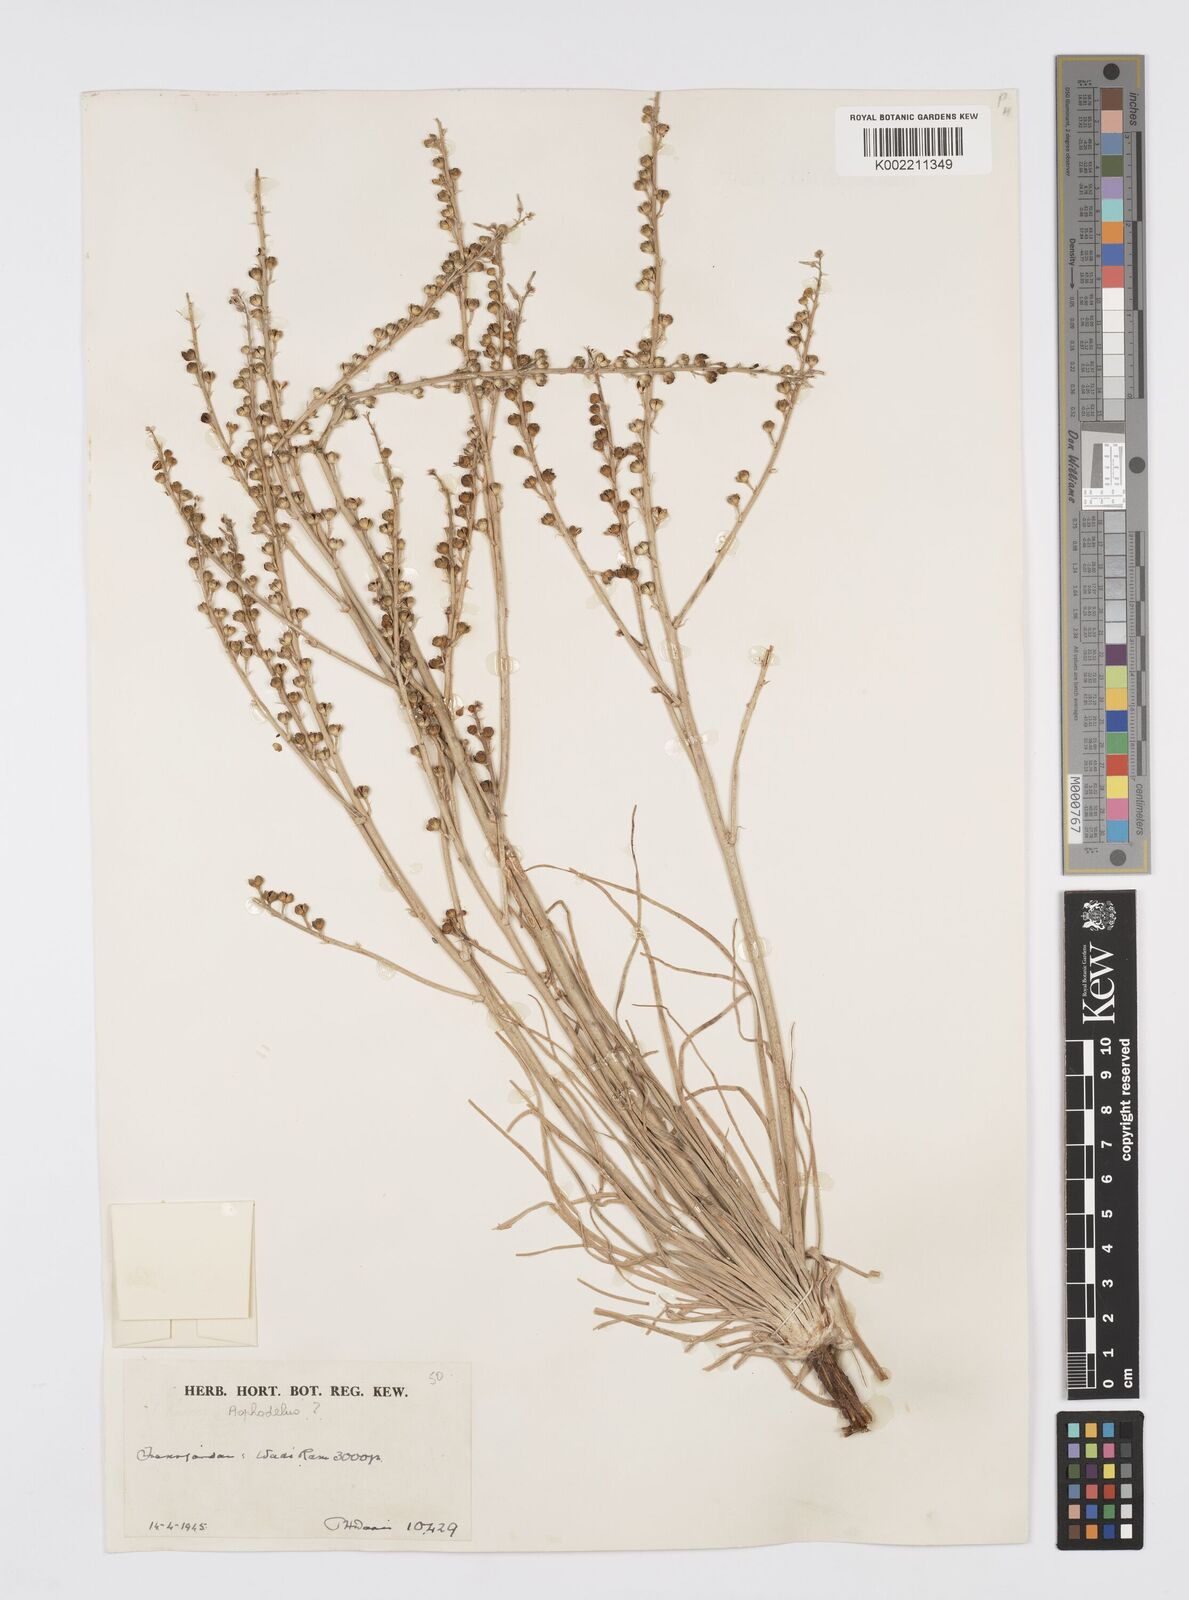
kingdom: Plantae
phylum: Tracheophyta
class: Liliopsida
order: Asparagales
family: Asphodelaceae
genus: Asphodelus
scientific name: Asphodelus tenuifolius
